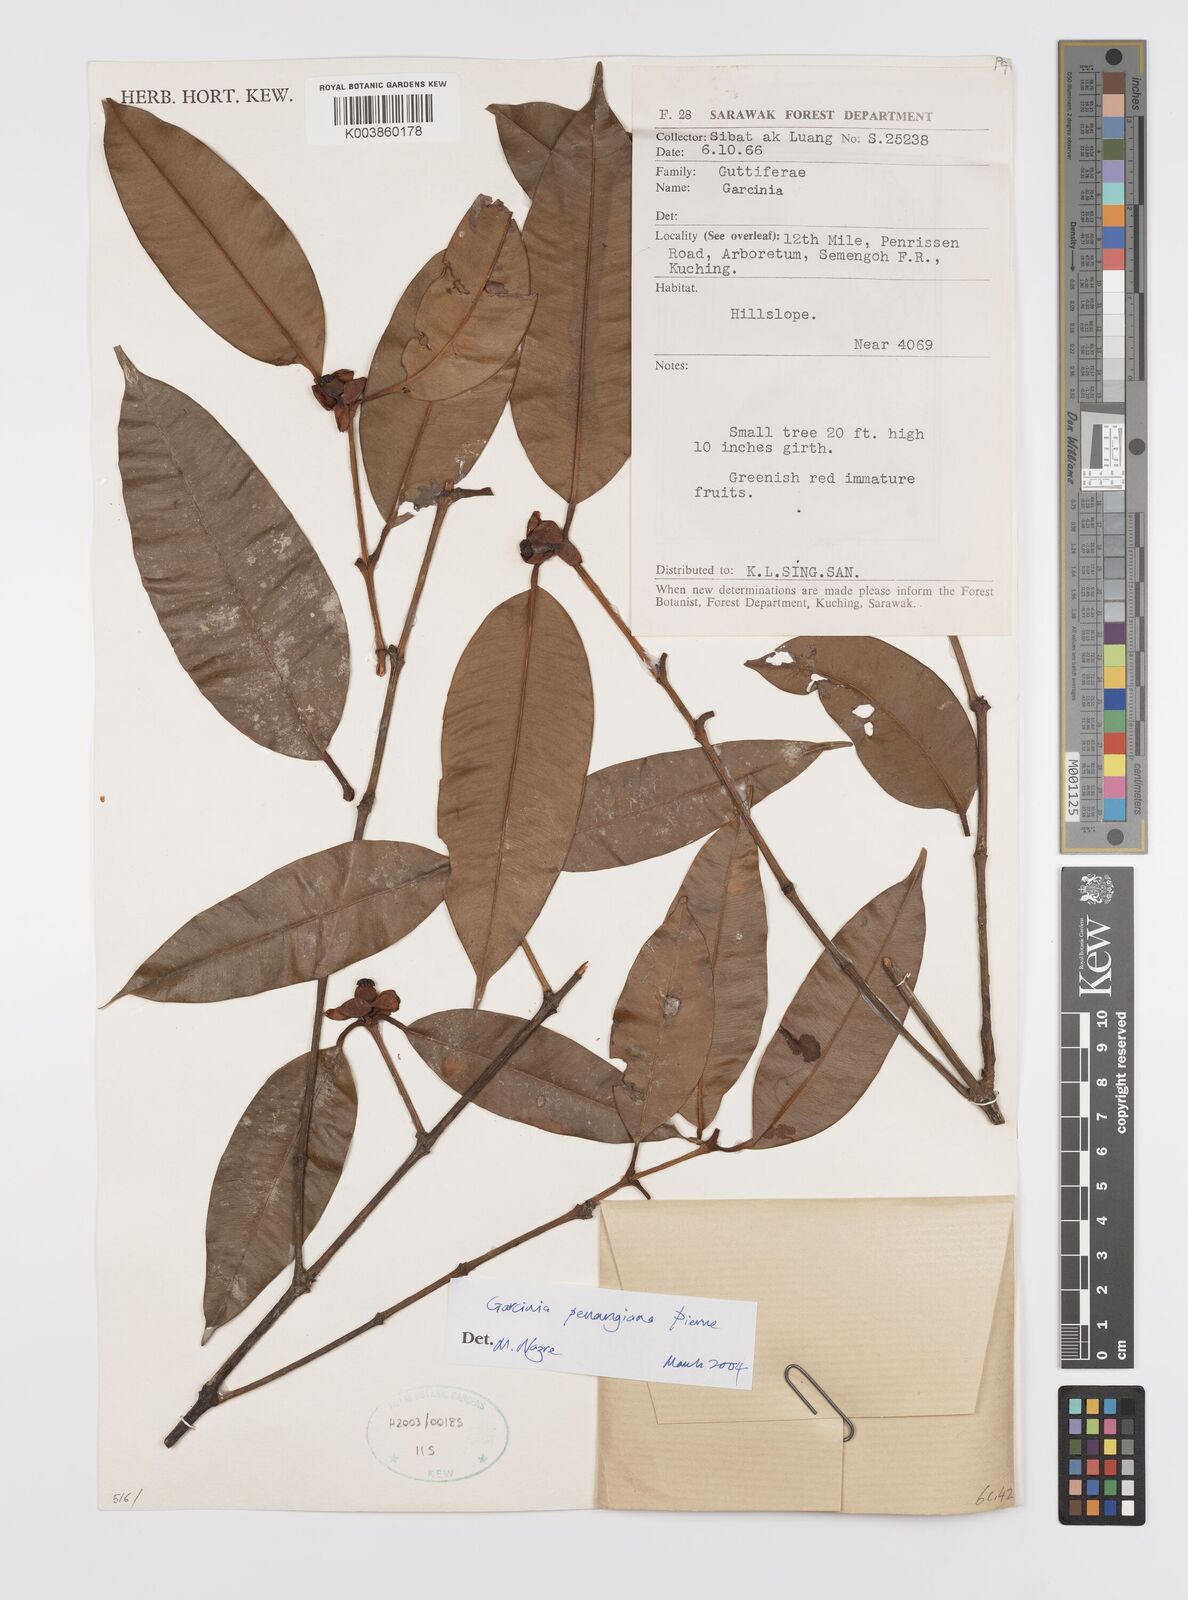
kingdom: Plantae
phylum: Tracheophyta
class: Magnoliopsida
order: Malpighiales
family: Clusiaceae
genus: Garcinia
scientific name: Garcinia penangiana
